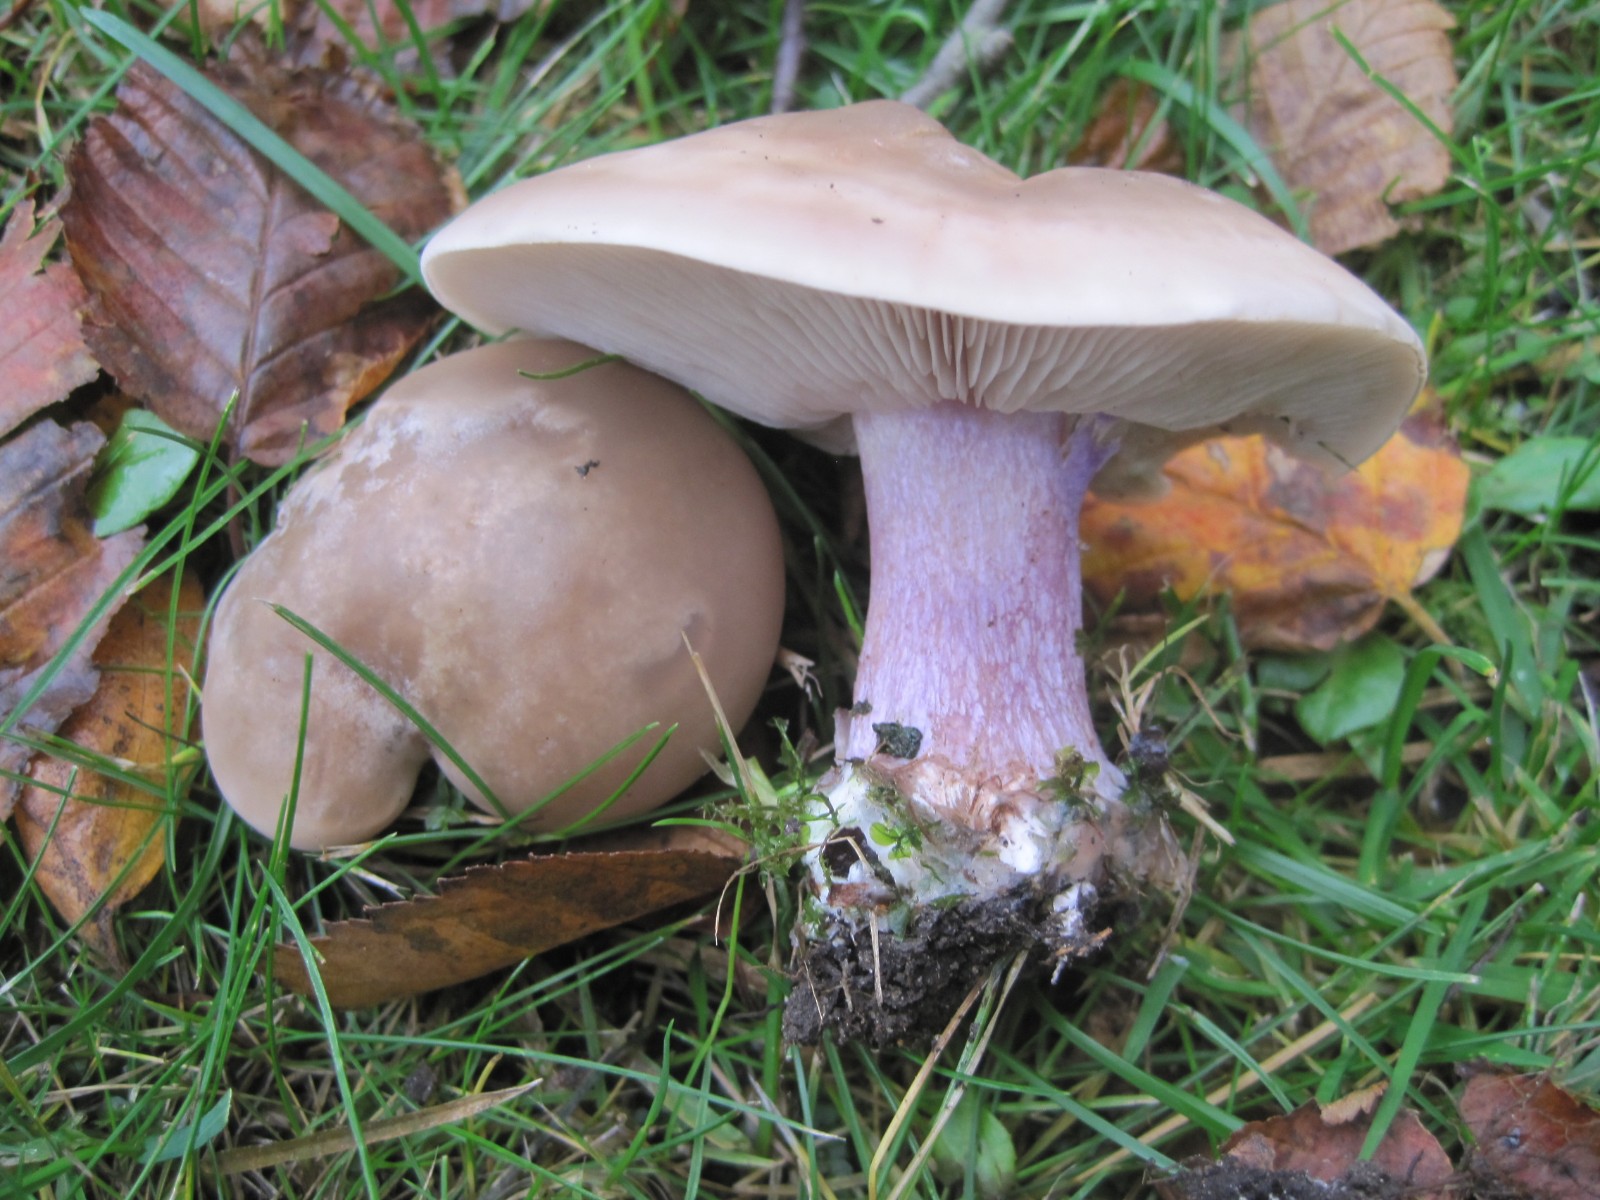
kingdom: Fungi
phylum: Basidiomycota
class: Agaricomycetes
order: Agaricales
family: Tricholomataceae
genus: Lepista
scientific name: Lepista personata
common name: bleg hekseringshat
